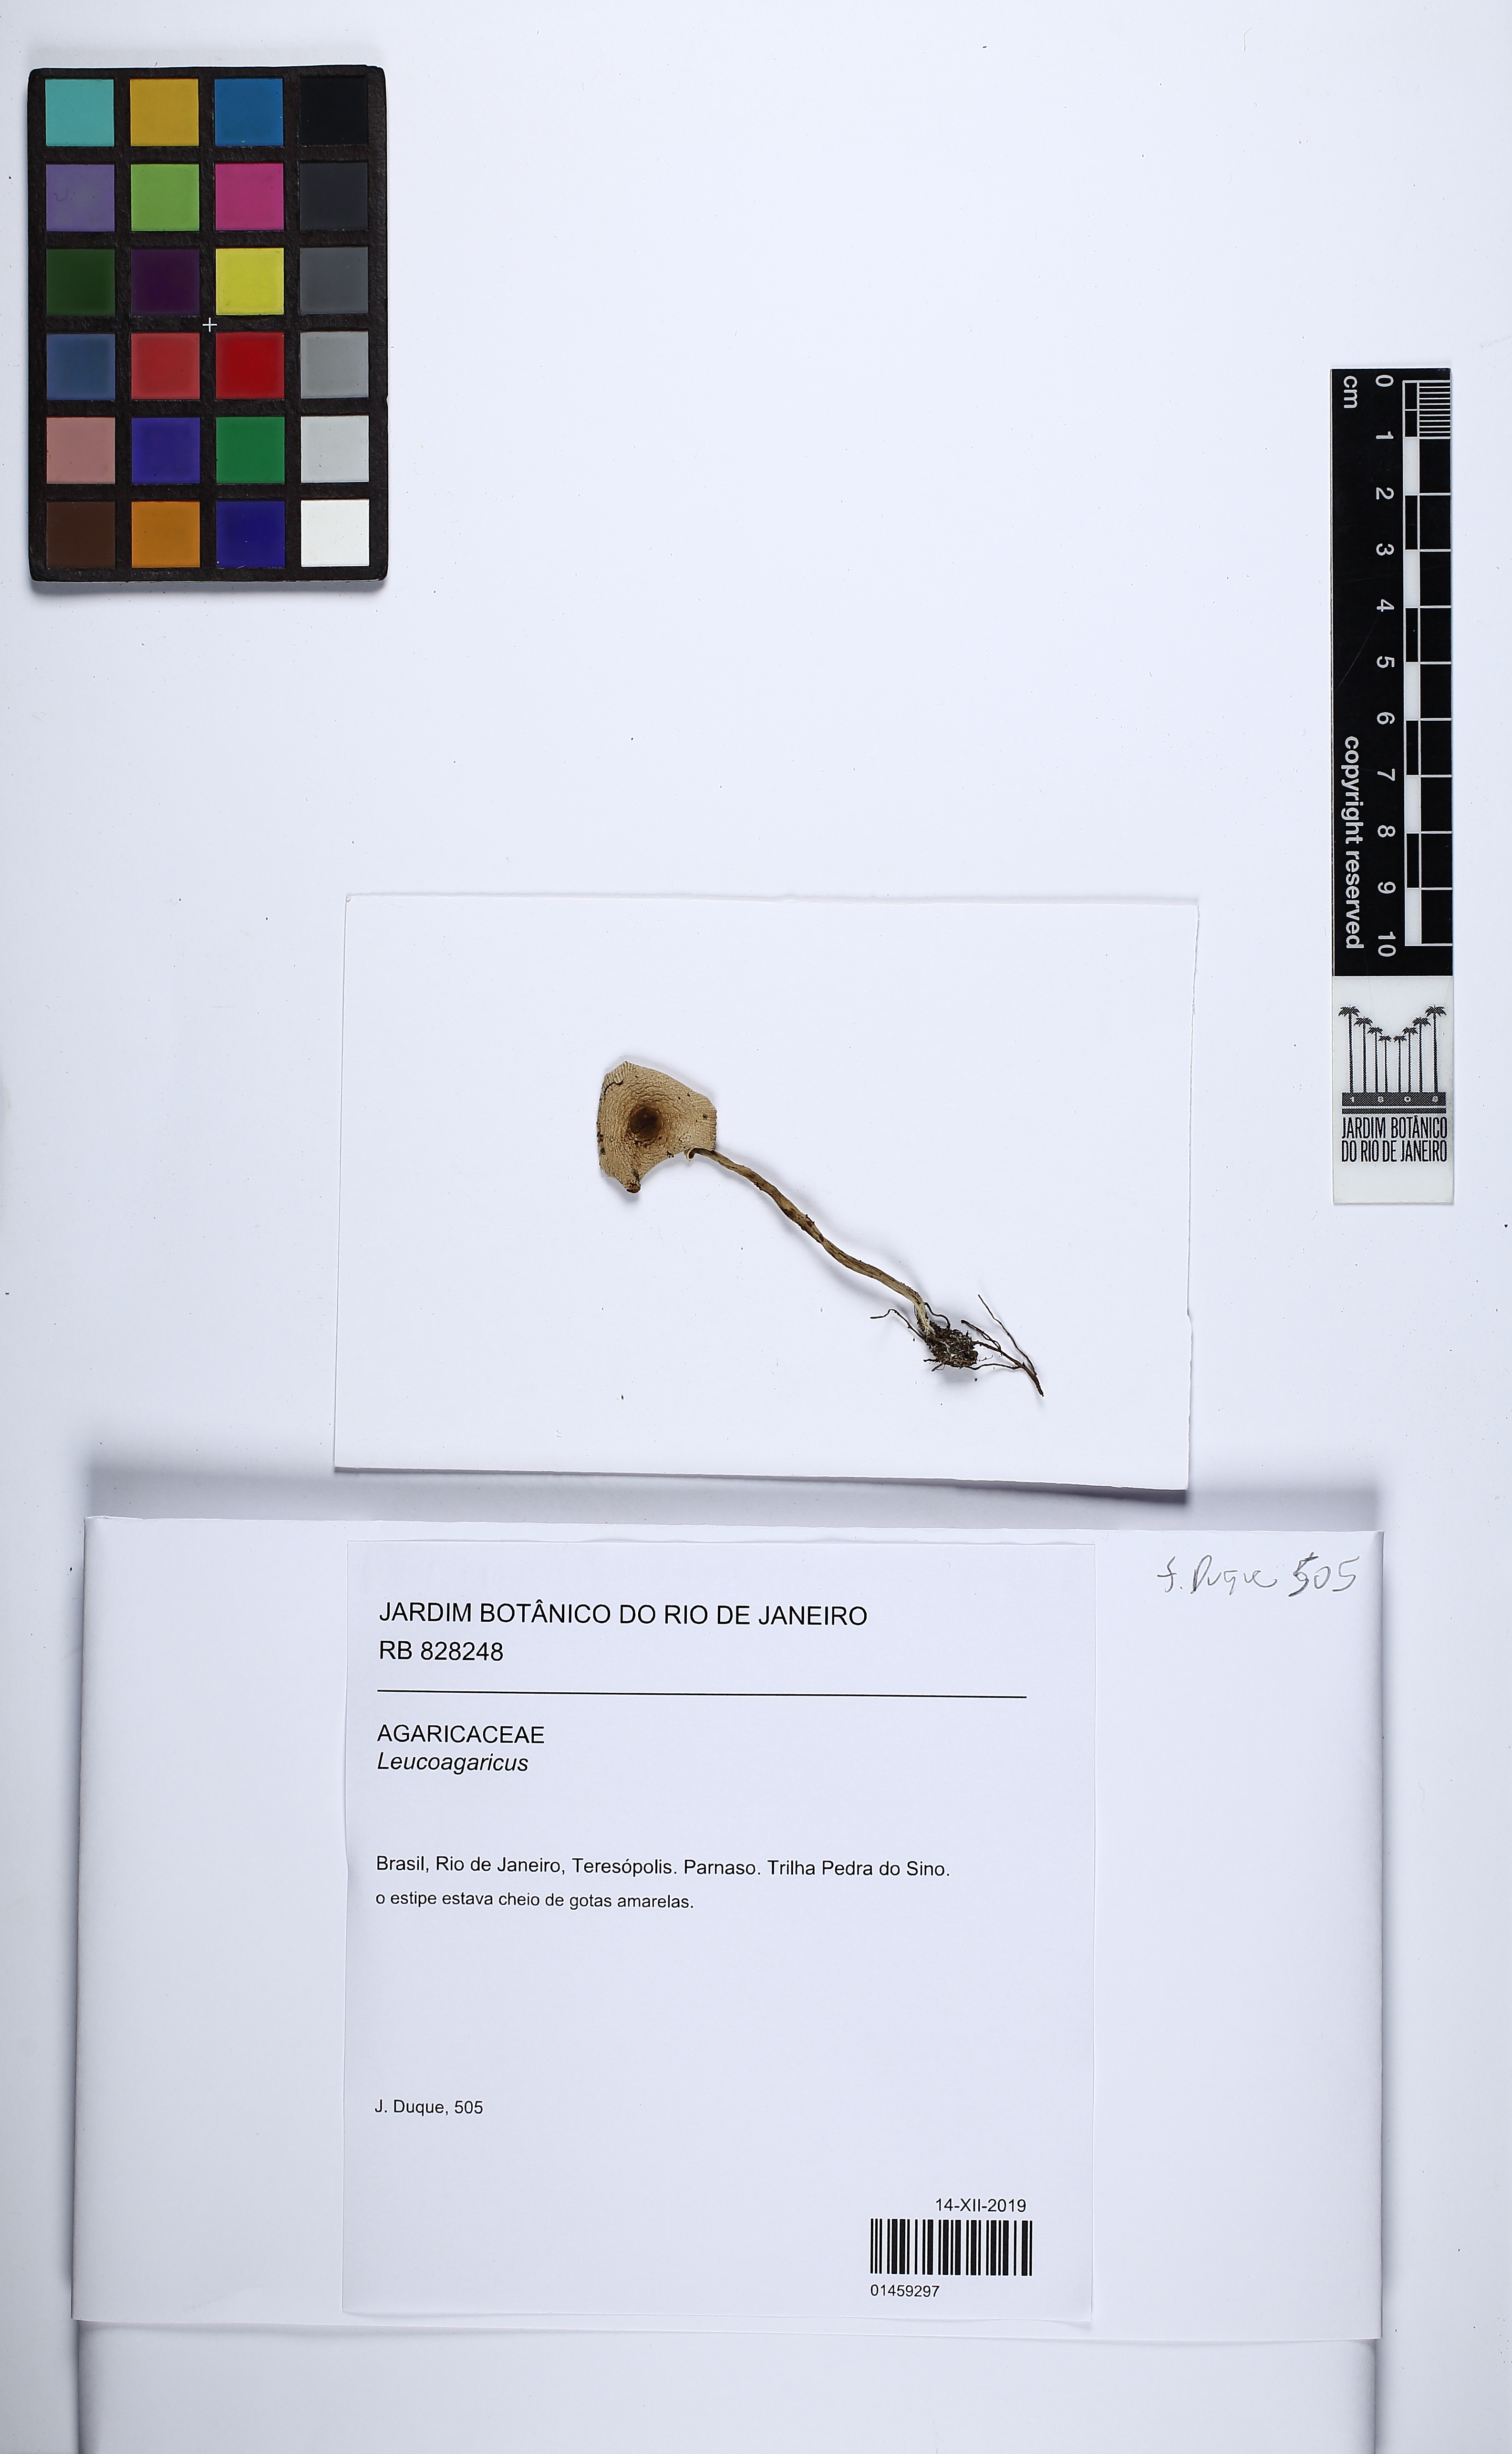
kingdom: Fungi
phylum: Basidiomycota
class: Agaricomycetes
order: Agaricales
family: Agaricaceae
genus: Leucoagaricus
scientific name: Leucoagaricus
